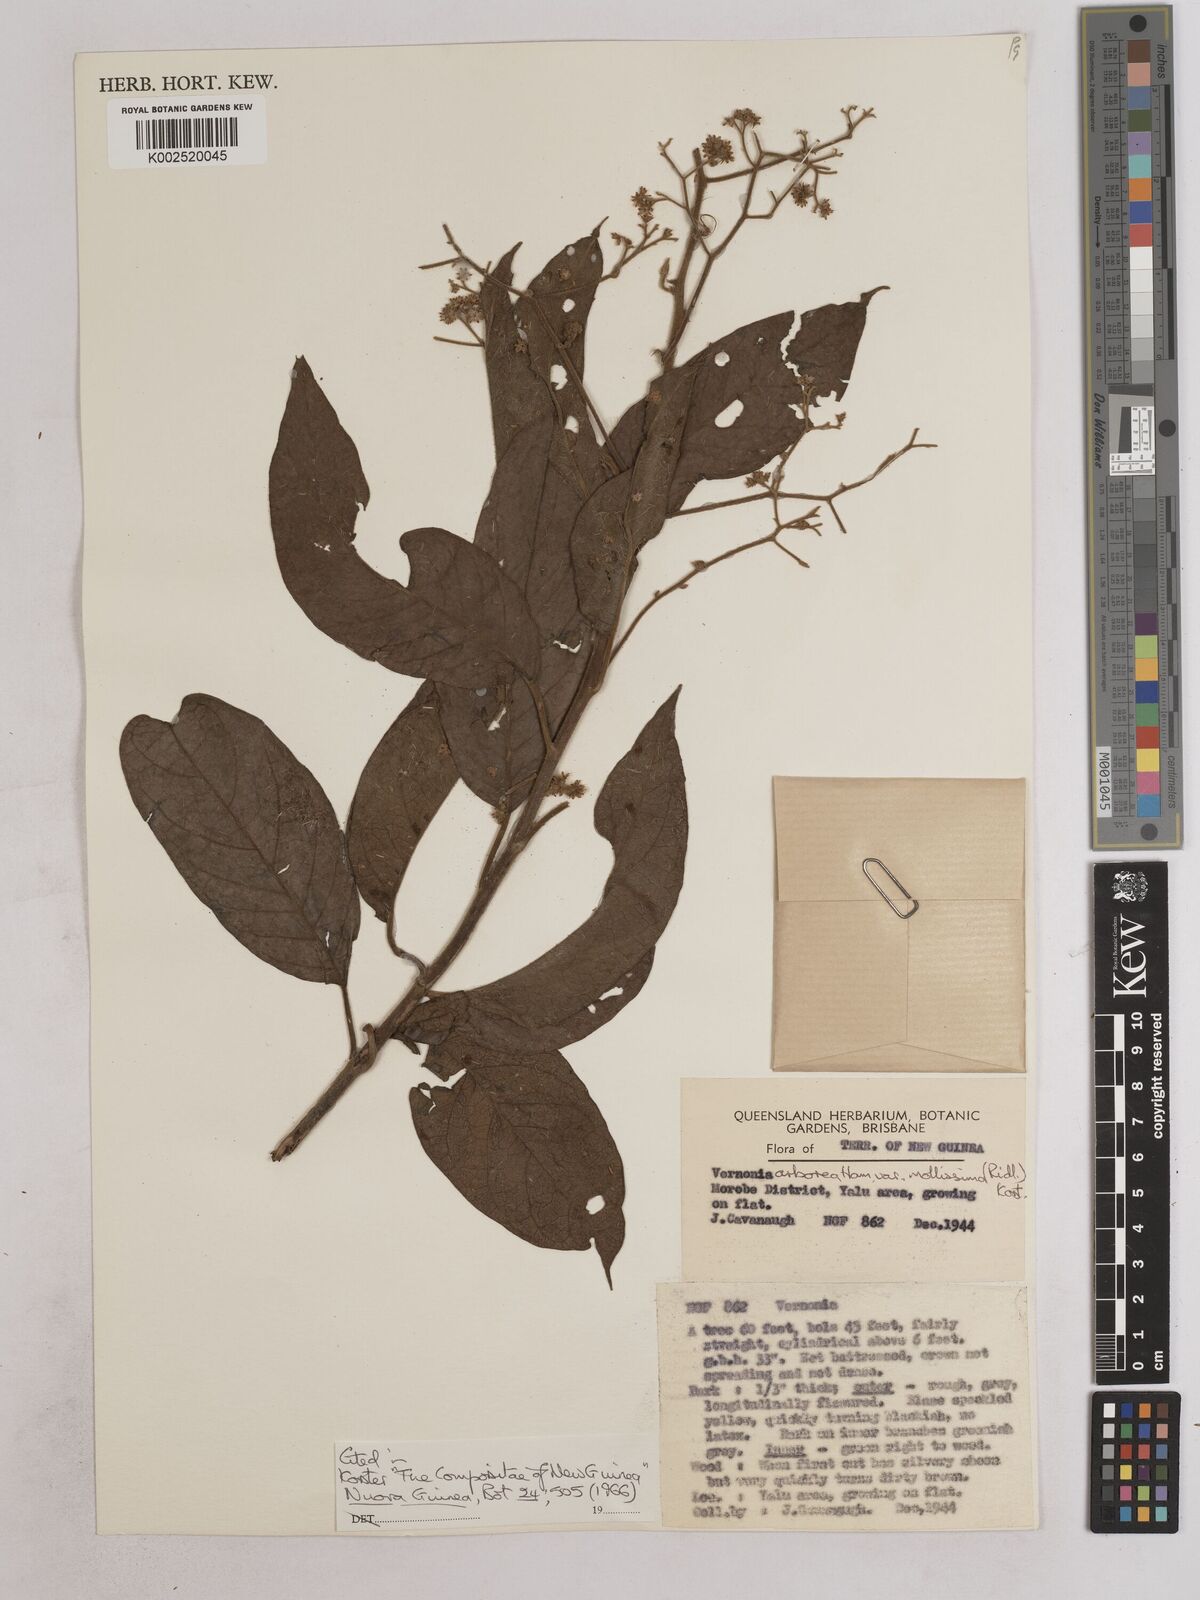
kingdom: Plantae
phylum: Tracheophyta
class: Magnoliopsida
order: Asterales
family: Asteraceae
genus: Strobocalyx
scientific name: Strobocalyx arborea
